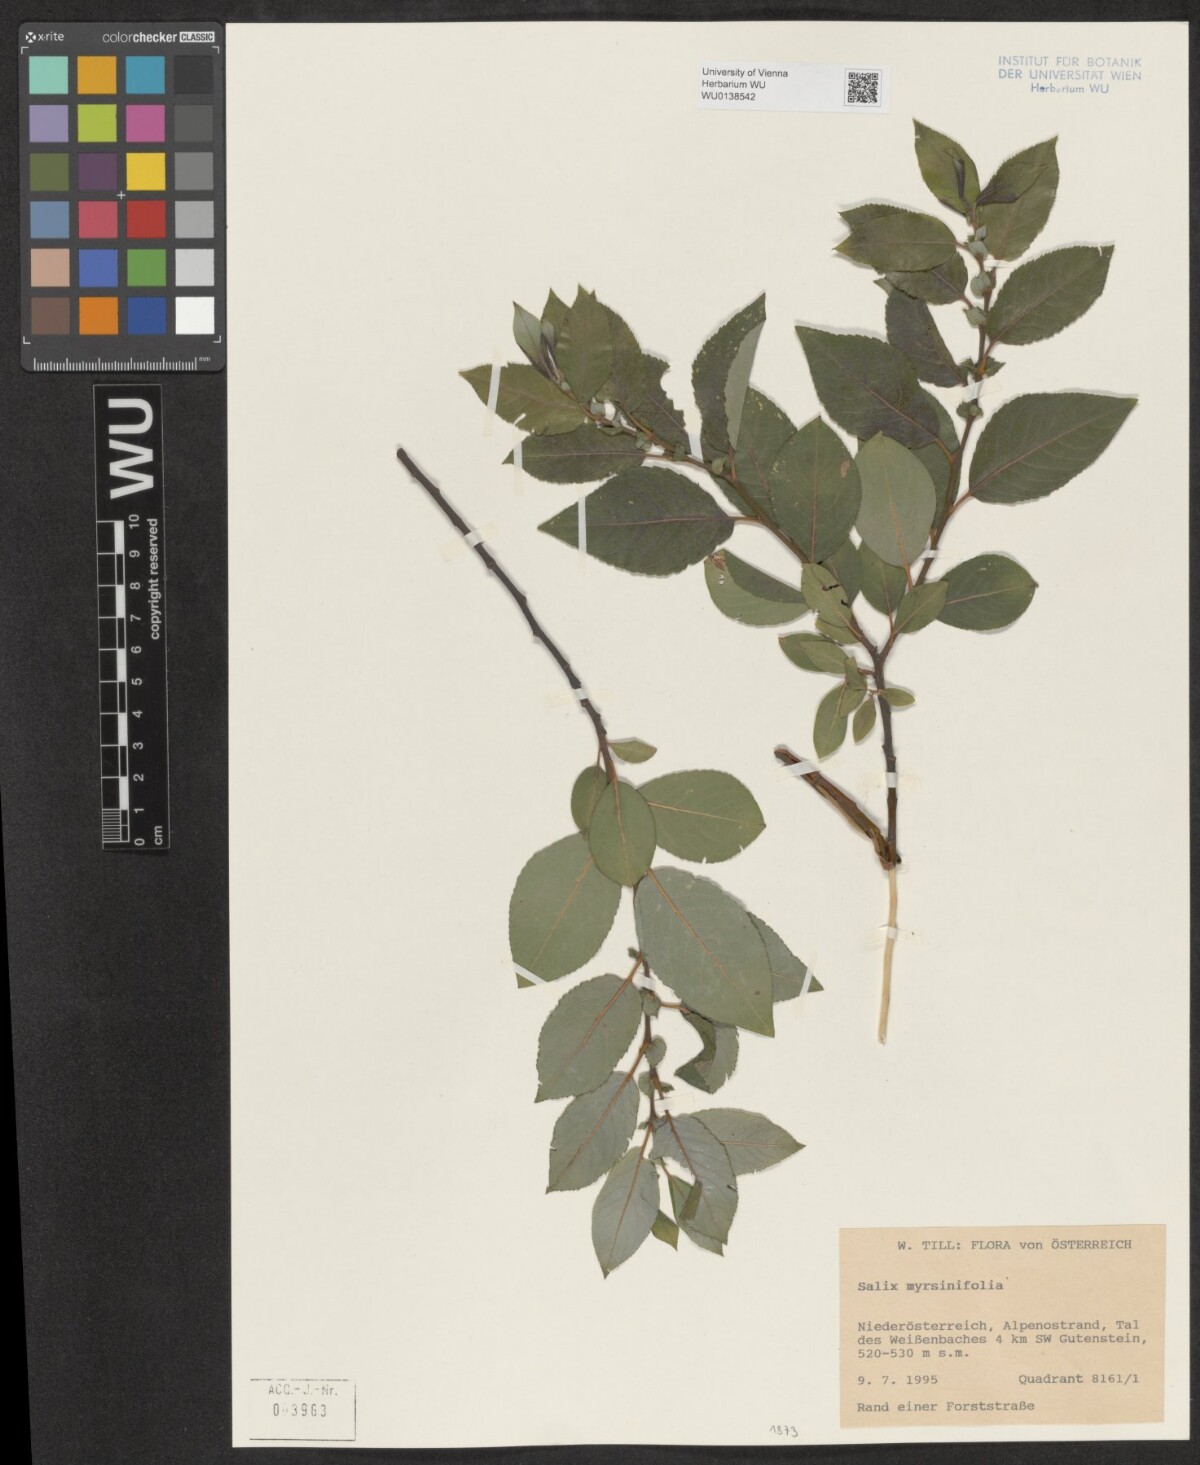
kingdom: Plantae
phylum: Tracheophyta
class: Magnoliopsida
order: Malpighiales
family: Salicaceae
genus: Salix
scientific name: Salix myrsinifolia
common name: Dark-leaved willow
